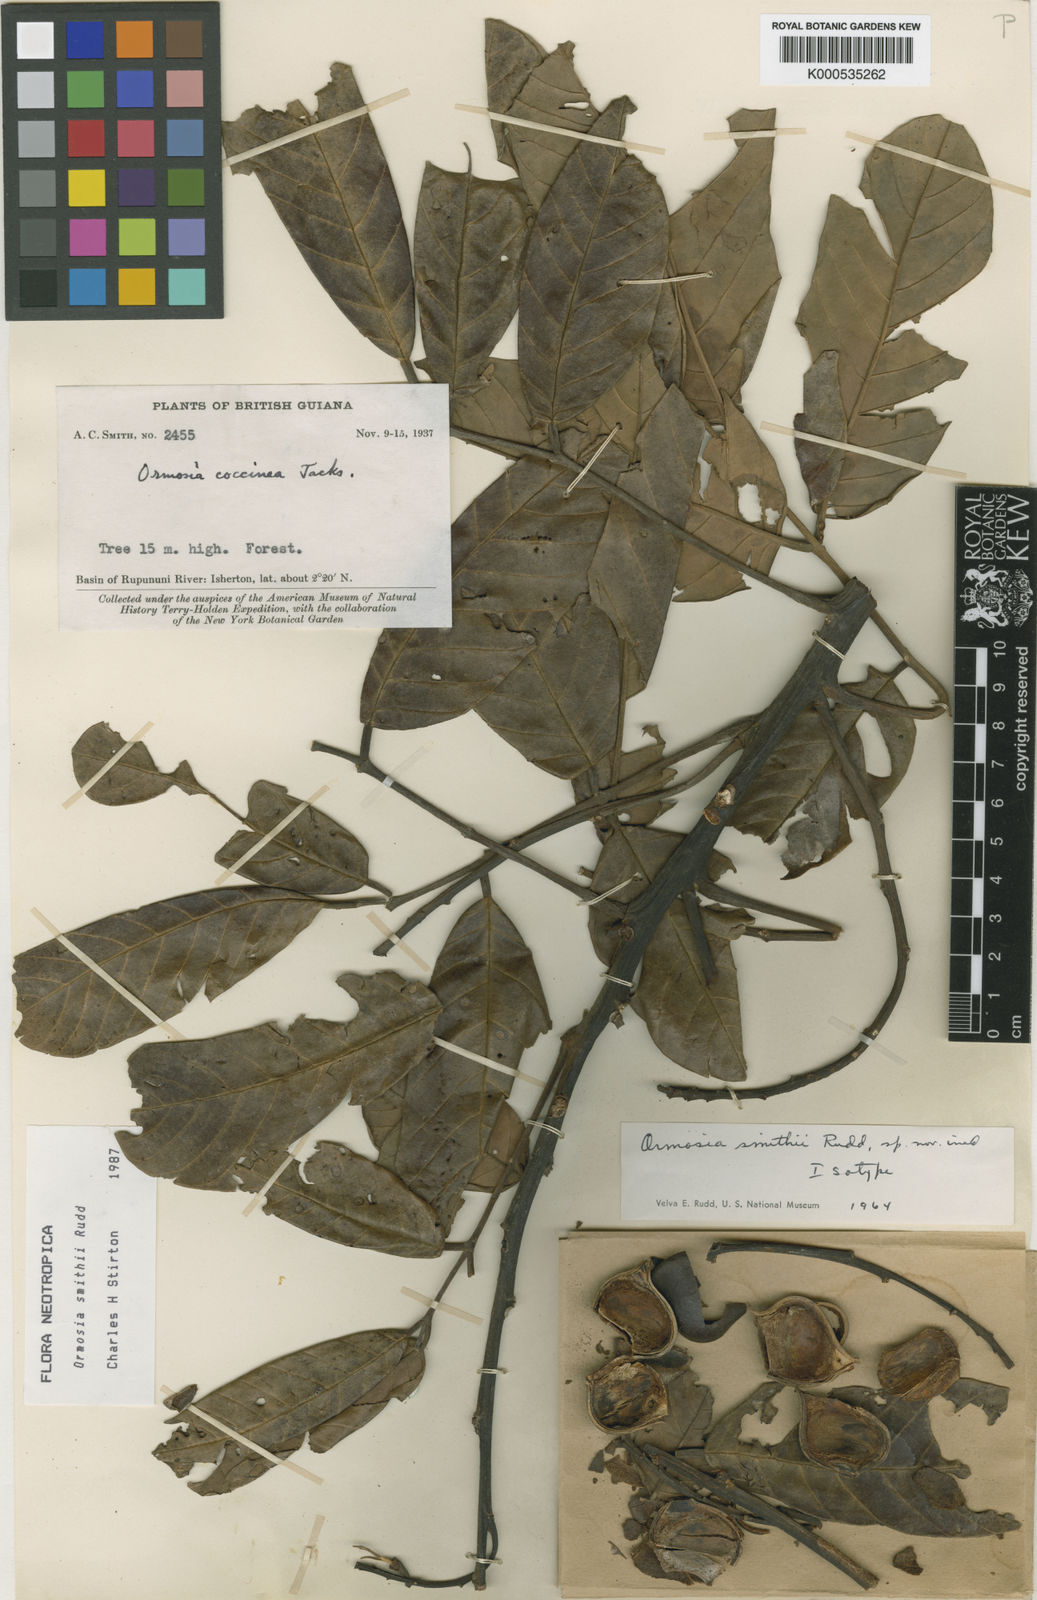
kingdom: Plantae
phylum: Tracheophyta
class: Magnoliopsida
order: Fabales
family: Fabaceae
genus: Ormosia
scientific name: Ormosia smithii
